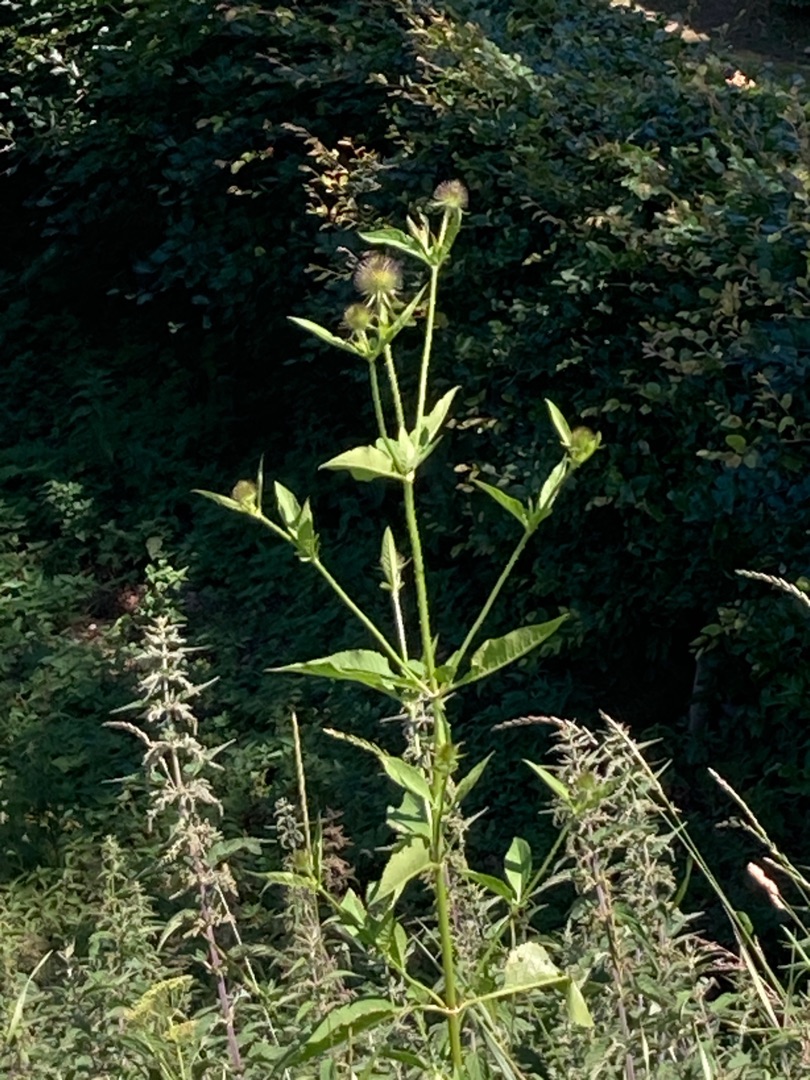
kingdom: Plantae
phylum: Tracheophyta
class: Magnoliopsida
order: Dipsacales
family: Caprifoliaceae
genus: Dipsacus
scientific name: Dipsacus fullonum
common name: Gærde-kartebolle
